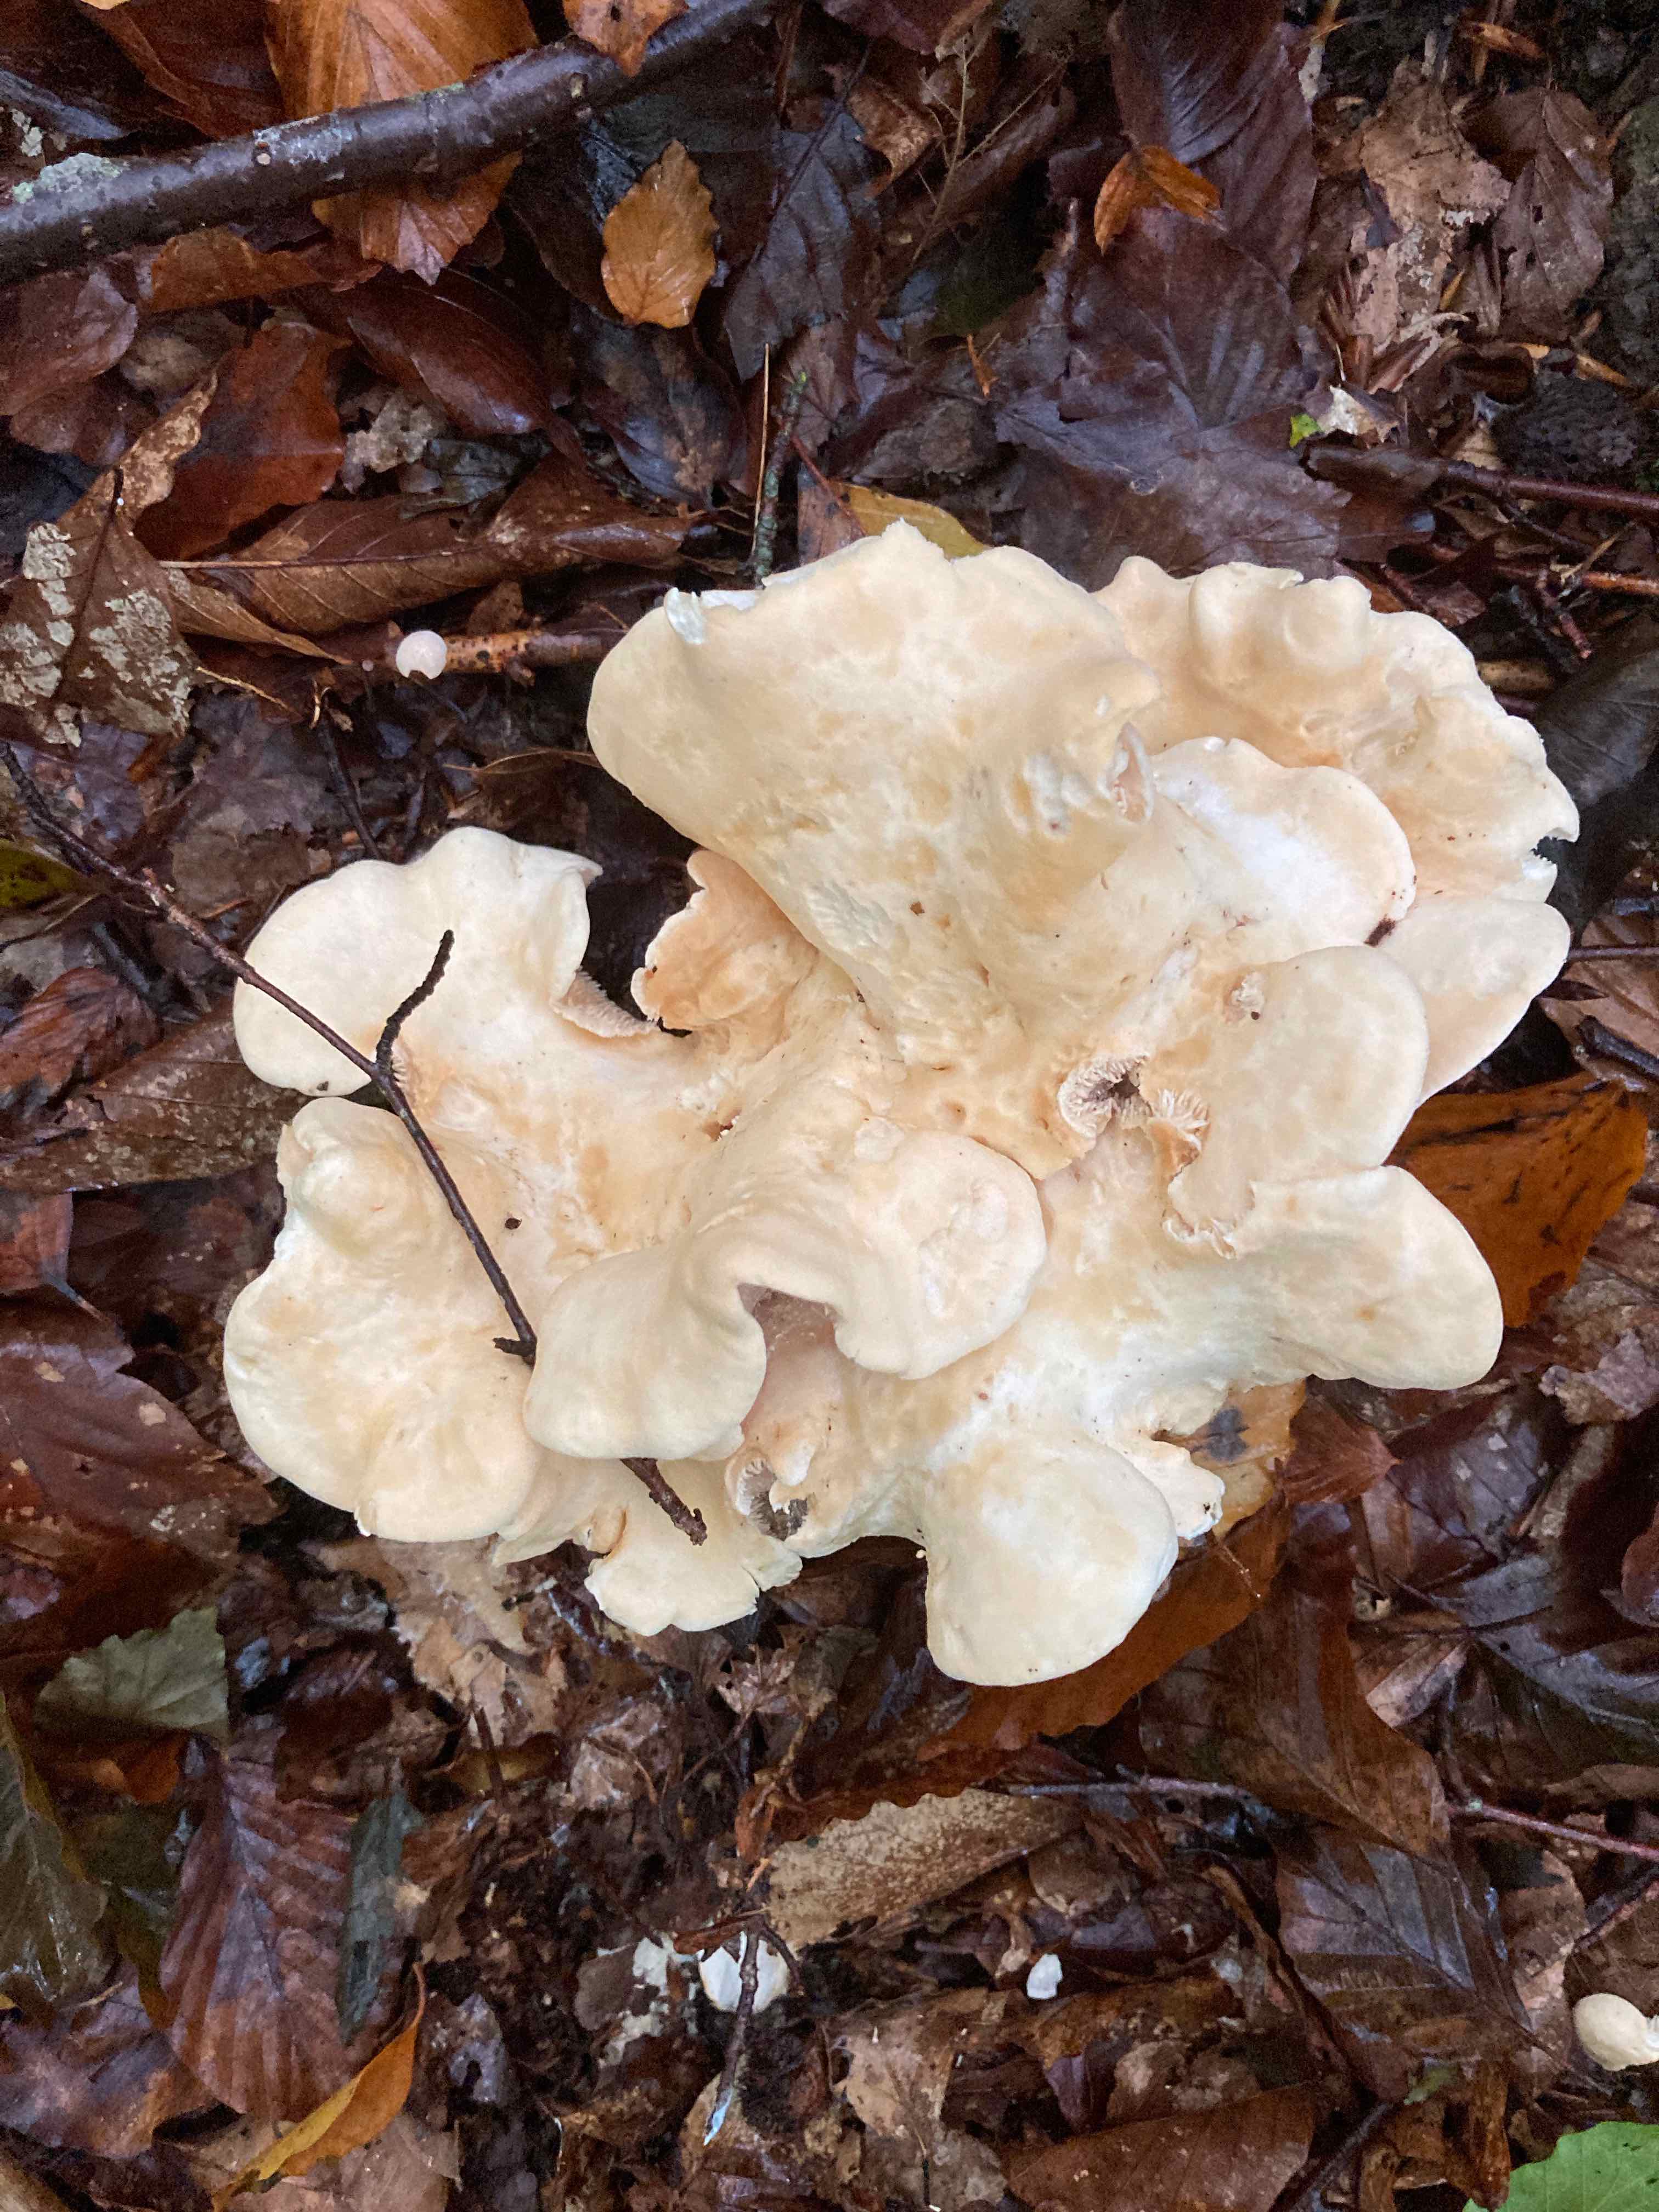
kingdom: Fungi
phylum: Basidiomycota
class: Agaricomycetes
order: Cantharellales
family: Hydnaceae
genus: Hydnum
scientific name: Hydnum repandum
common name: almindelig pigsvamp
